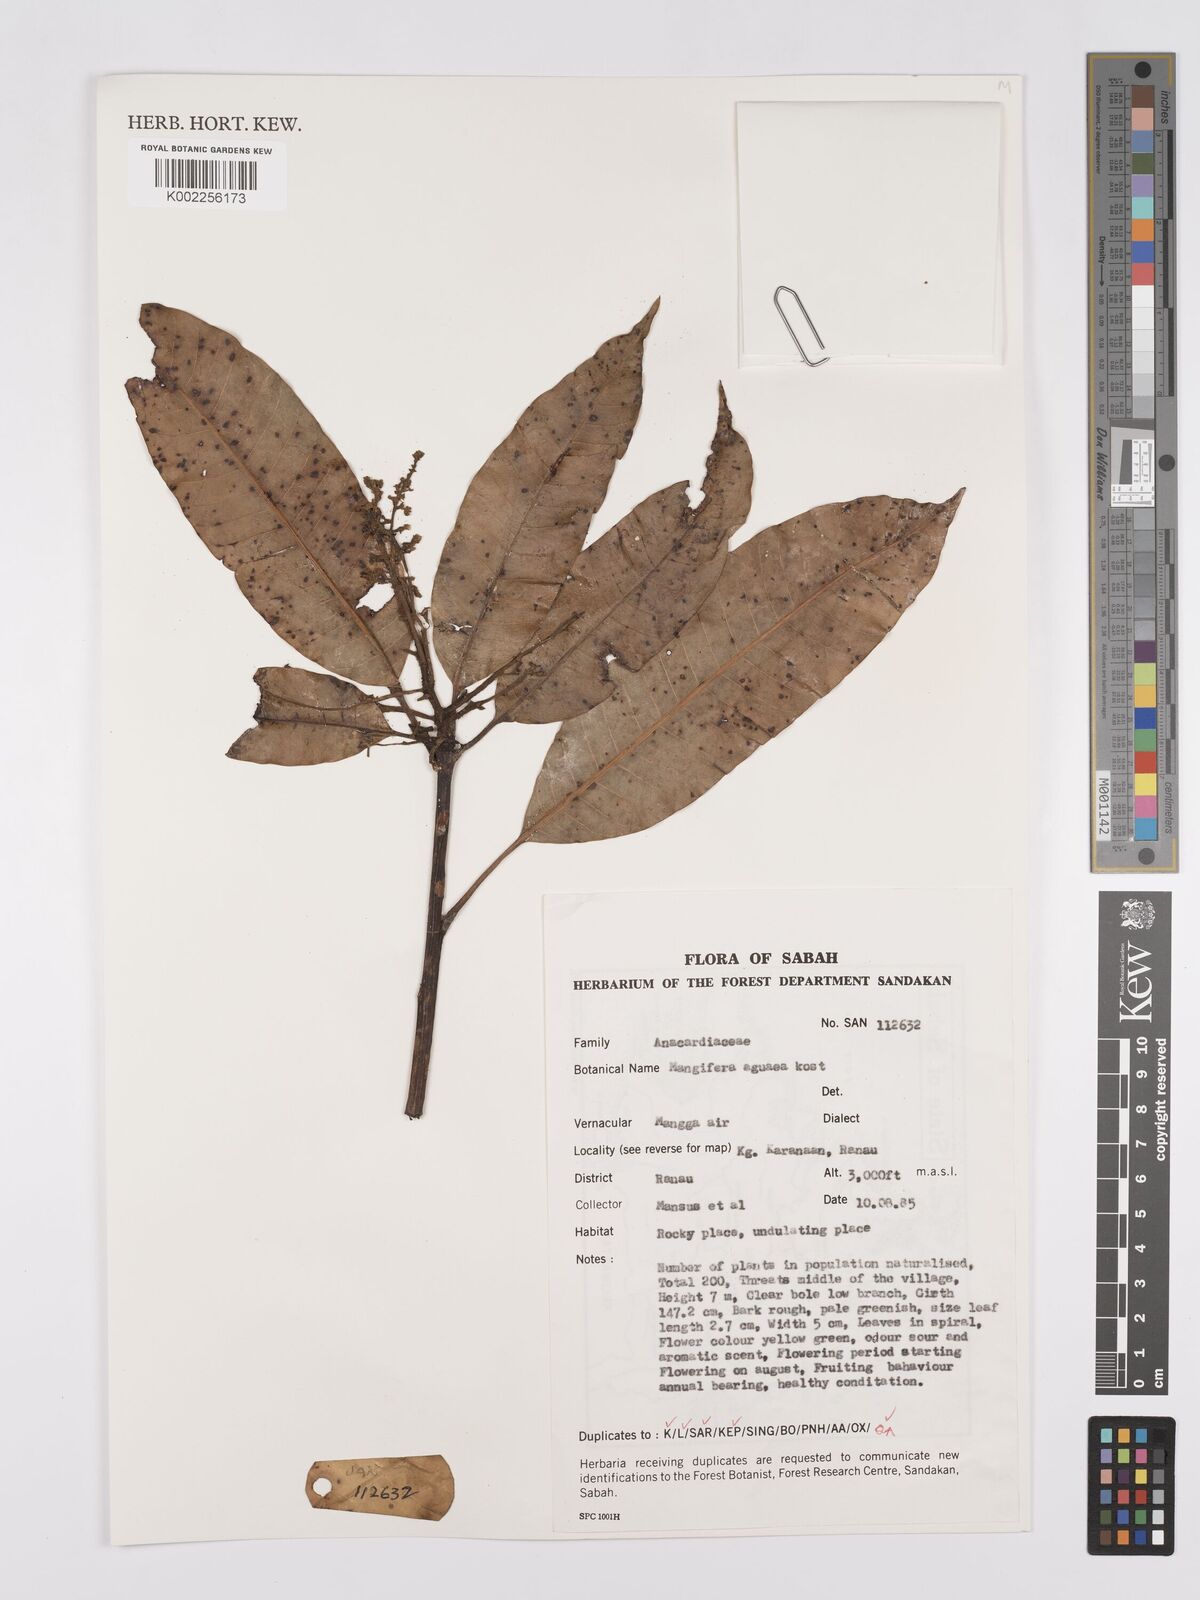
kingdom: Plantae
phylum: Tracheophyta
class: Magnoliopsida
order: Sapindales
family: Anacardiaceae
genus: Mangifera
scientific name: Mangifera laurina
